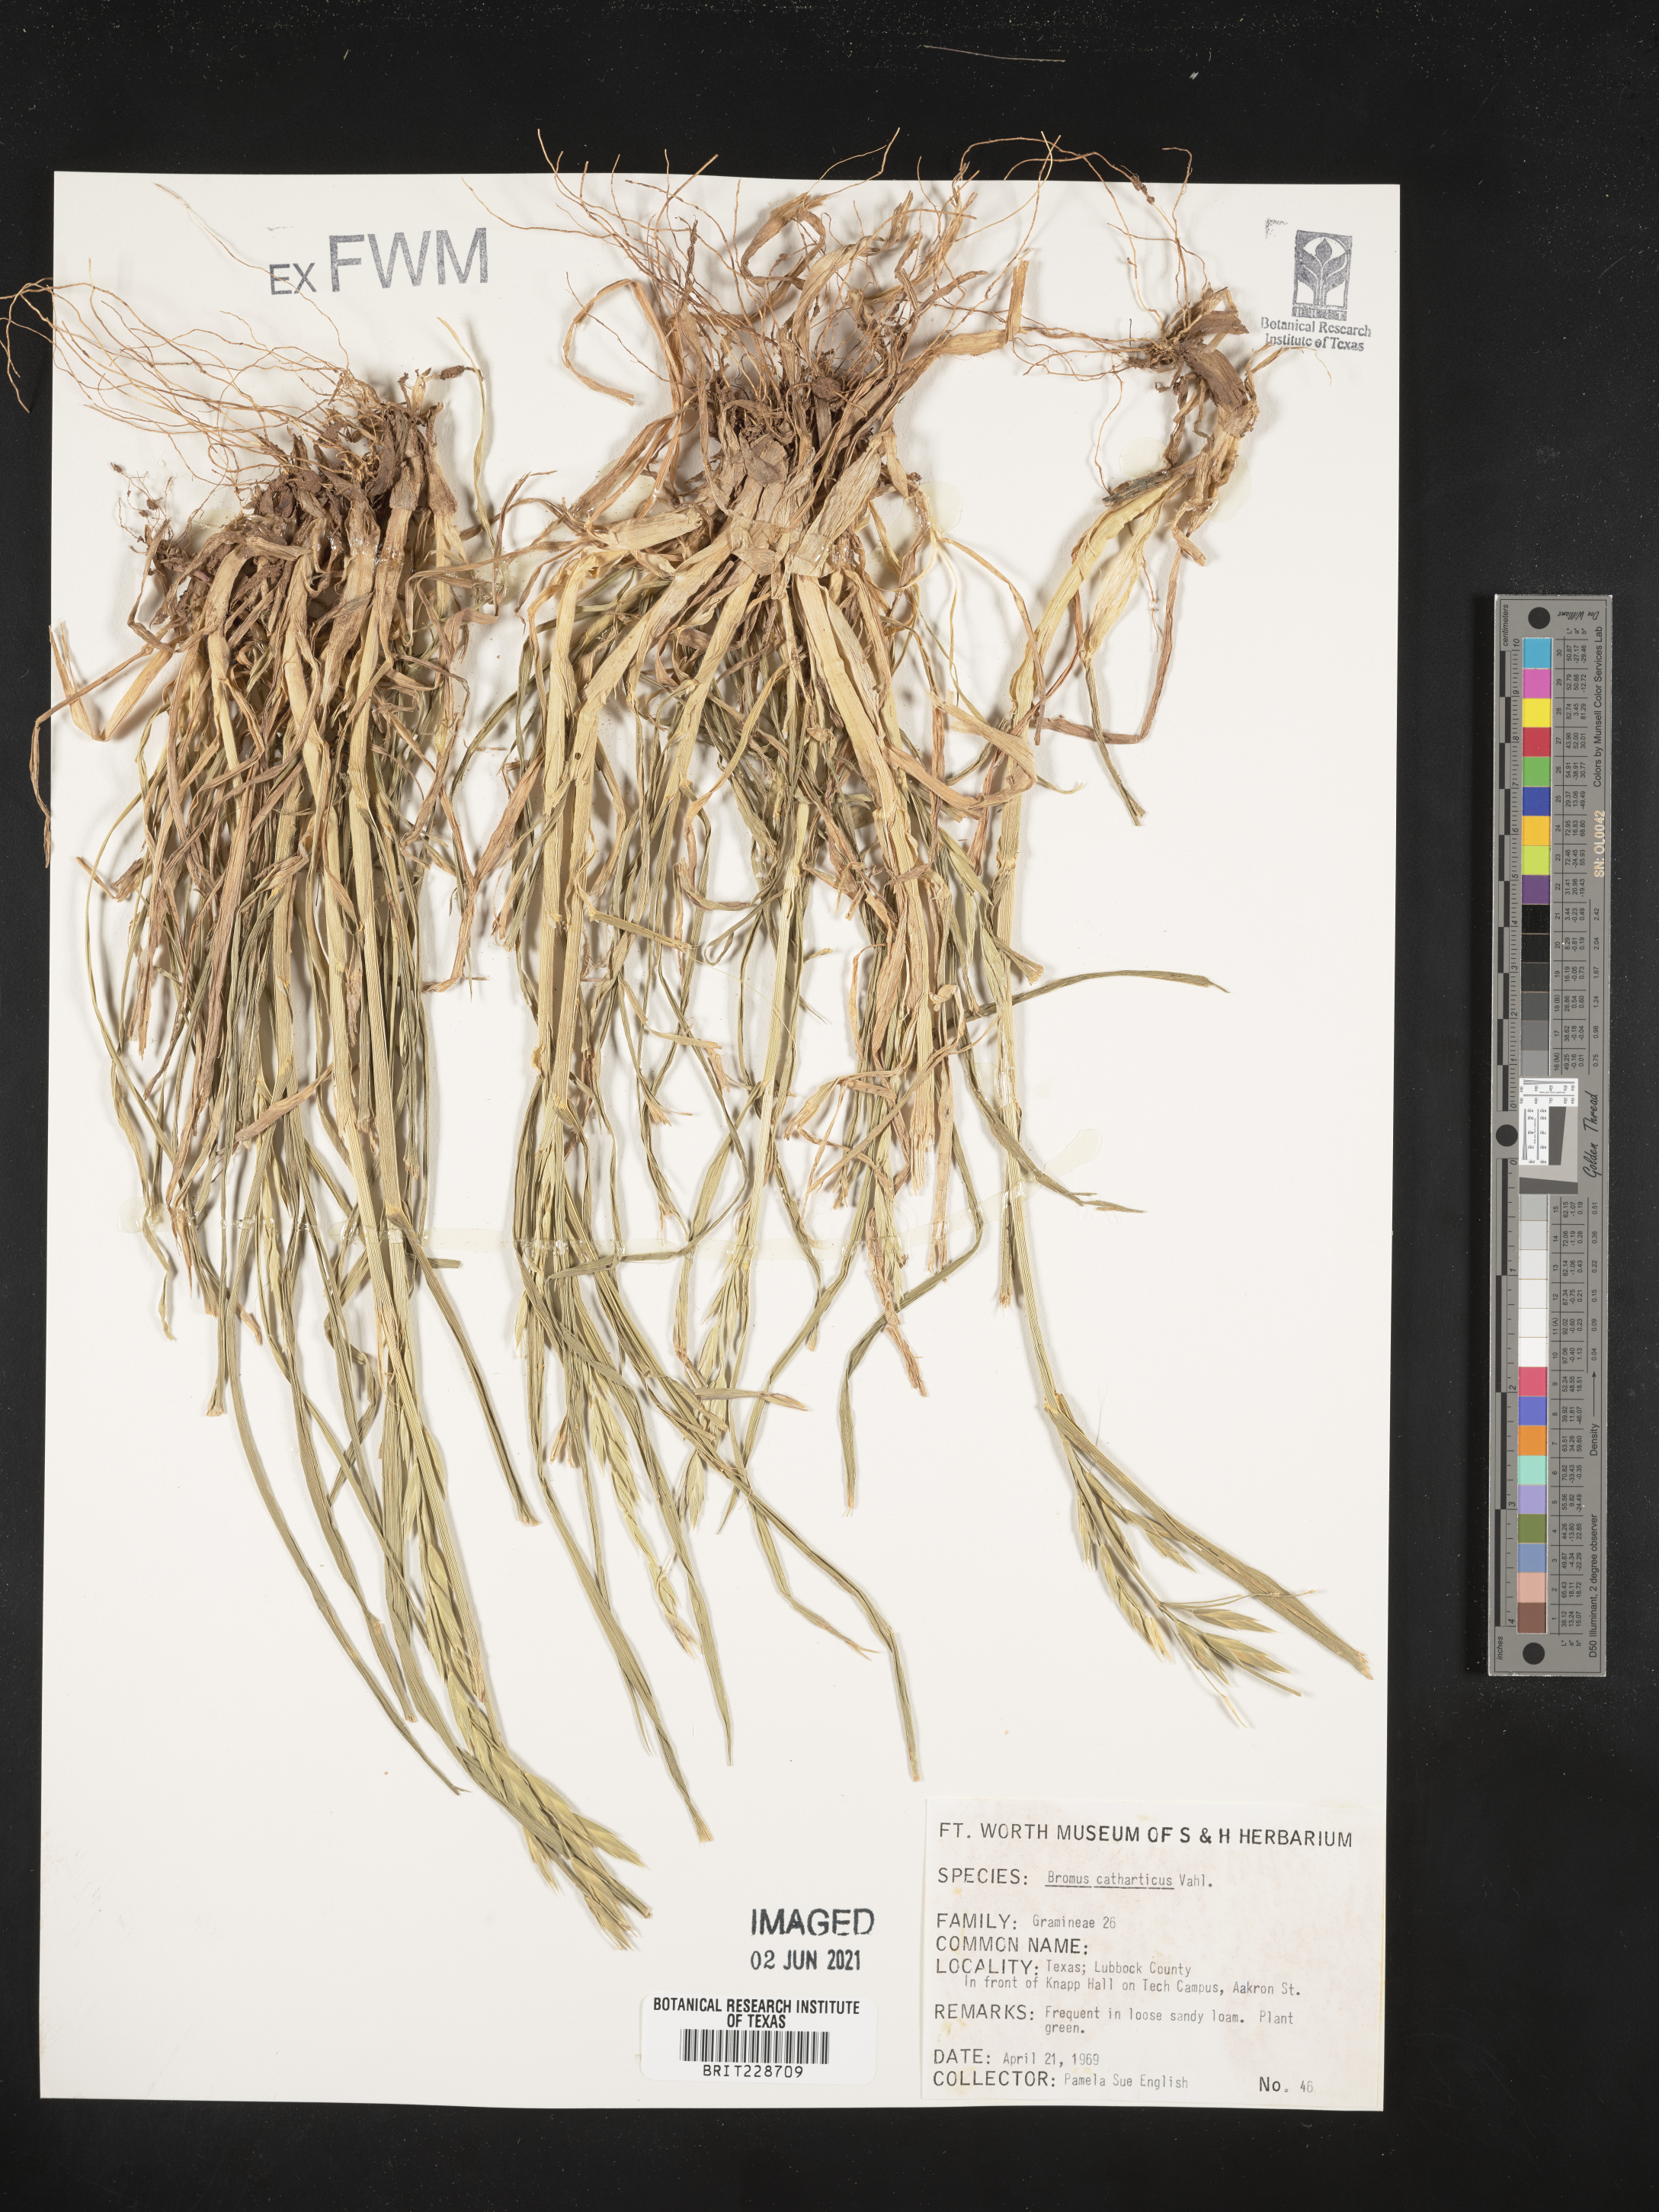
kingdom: Plantae
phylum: Tracheophyta
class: Liliopsida
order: Poales
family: Poaceae
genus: Bromus
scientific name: Bromus catharticus
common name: Rescuegrass
